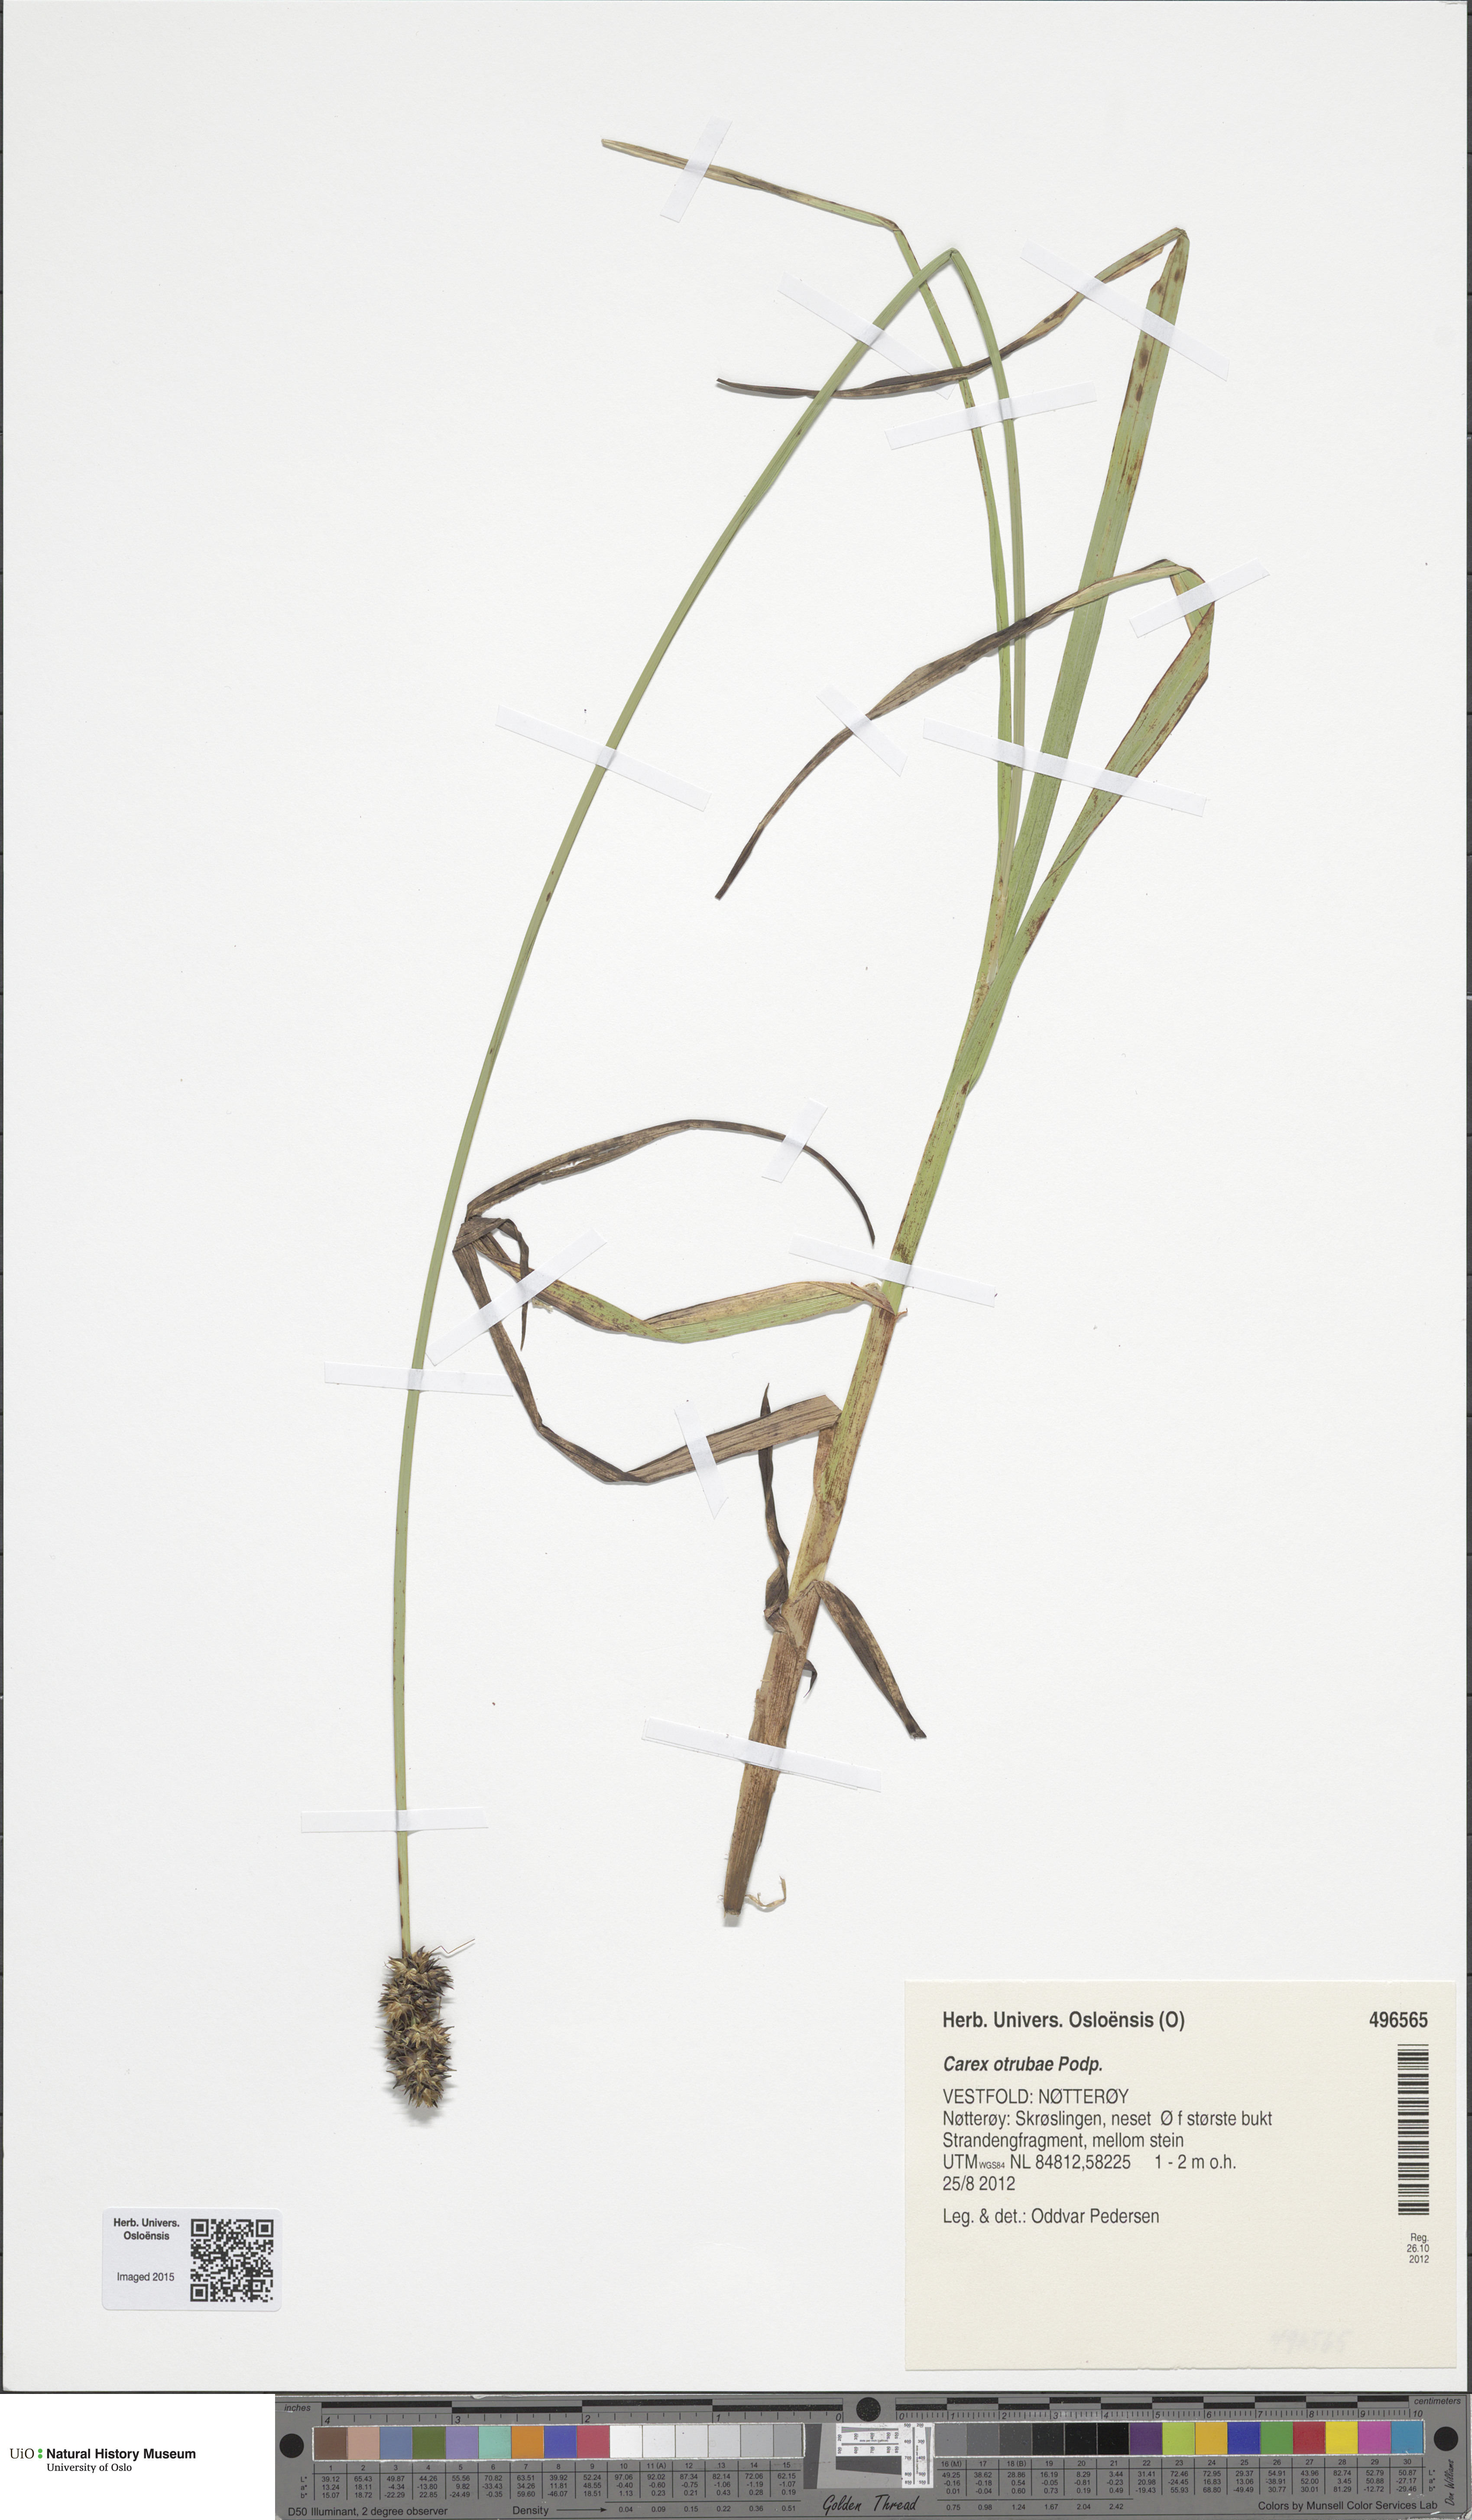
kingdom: Plantae
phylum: Tracheophyta
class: Liliopsida
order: Poales
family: Cyperaceae
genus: Carex
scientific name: Carex otrubae
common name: False fox-sedge
